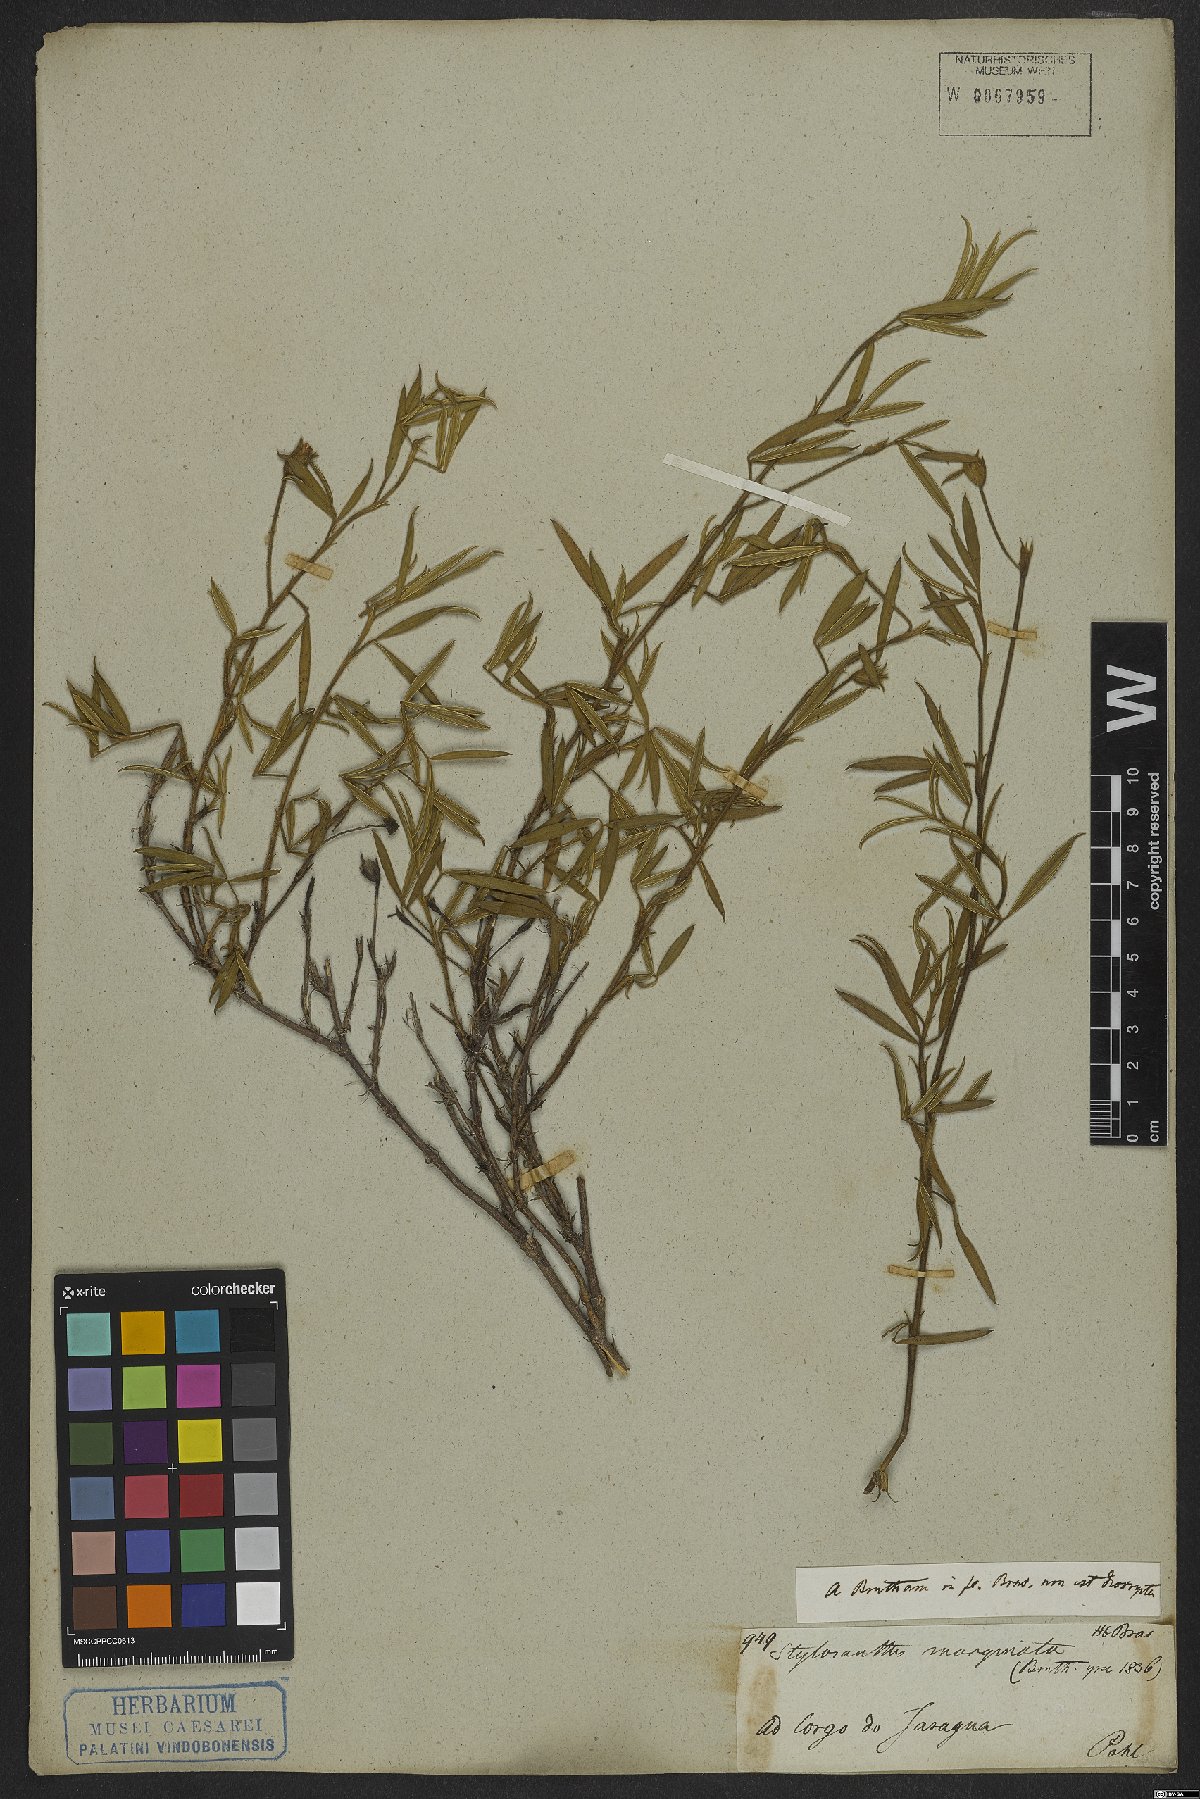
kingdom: Plantae
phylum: Tracheophyta
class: Magnoliopsida
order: Fabales
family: Fabaceae
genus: Stylosanthes
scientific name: Stylosanthes
